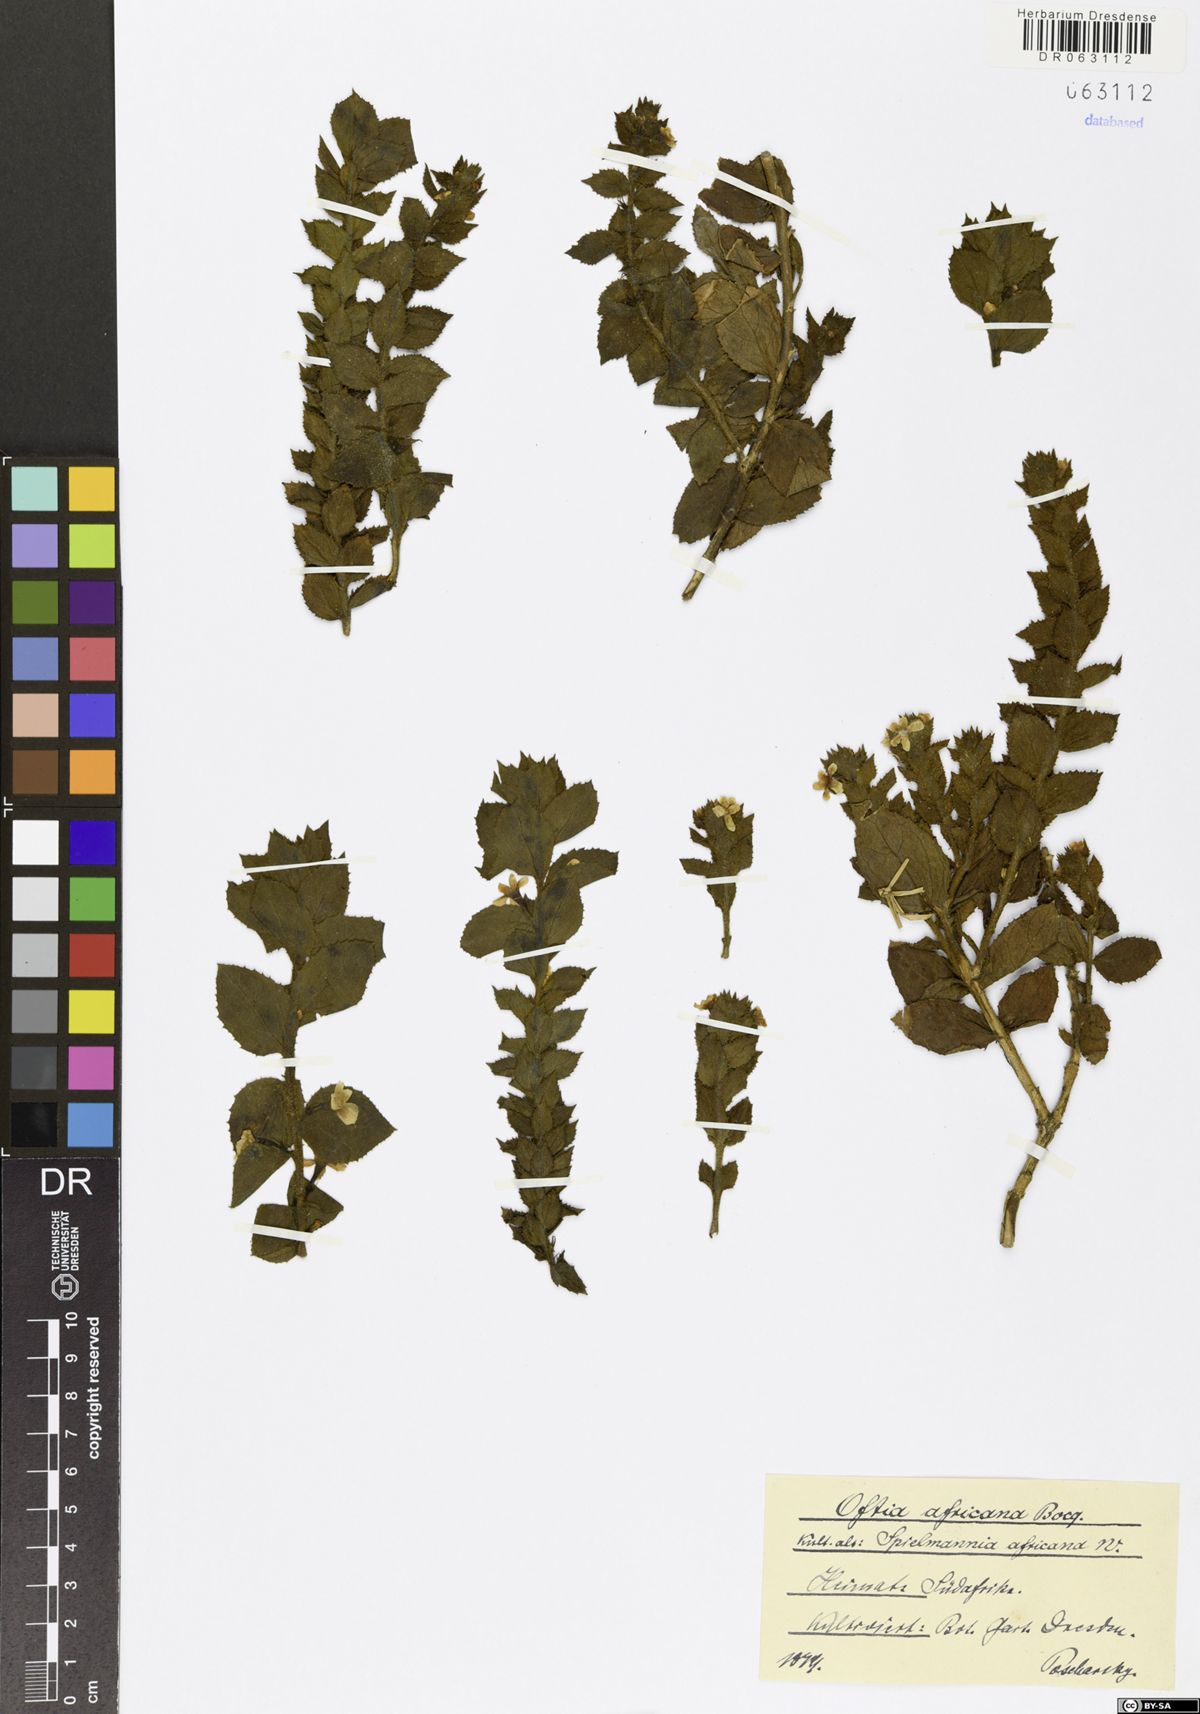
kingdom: Plantae
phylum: Tracheophyta
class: Magnoliopsida
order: Lamiales
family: Scrophulariaceae
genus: Oftia
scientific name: Oftia africana
